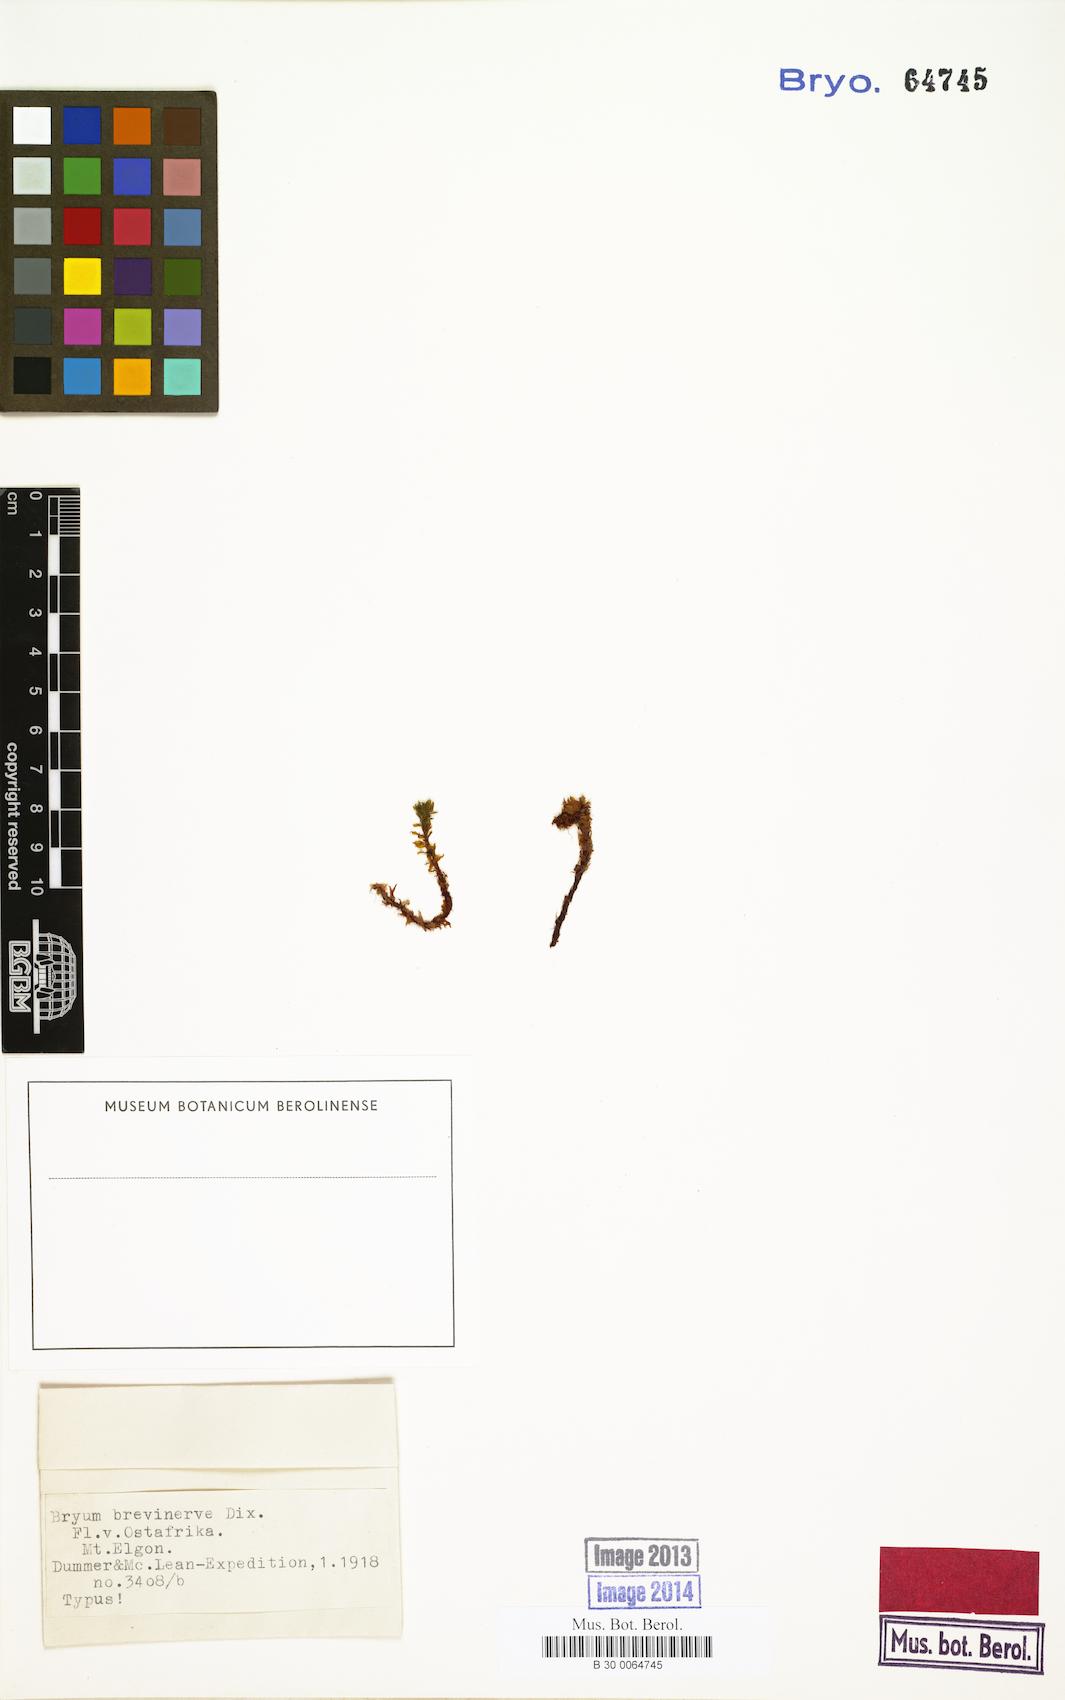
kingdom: Plantae
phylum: Bryophyta
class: Bryopsida
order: Bryales
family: Bryaceae
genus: Rhodobryum
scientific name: Rhodobryum preussii
